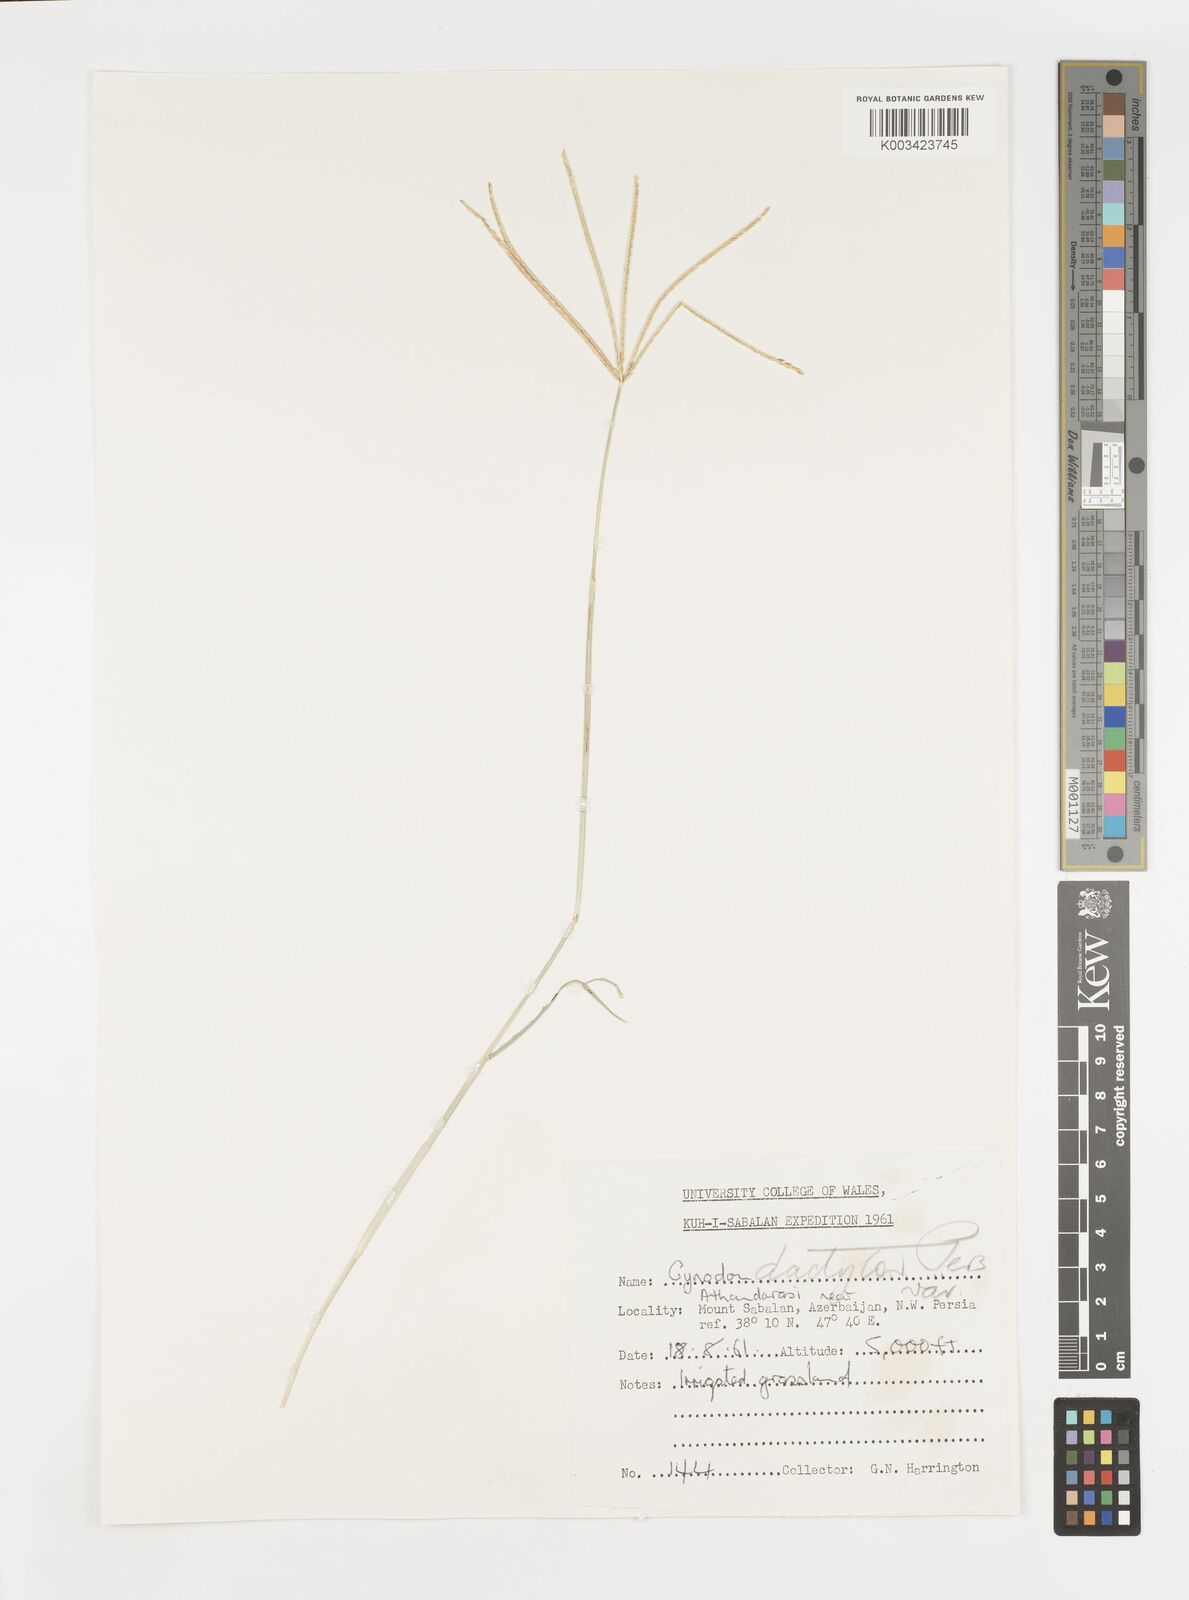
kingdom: Plantae
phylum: Tracheophyta
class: Liliopsida
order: Poales
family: Poaceae
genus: Cynodon
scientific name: Cynodon dactylon
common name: Bermuda grass
